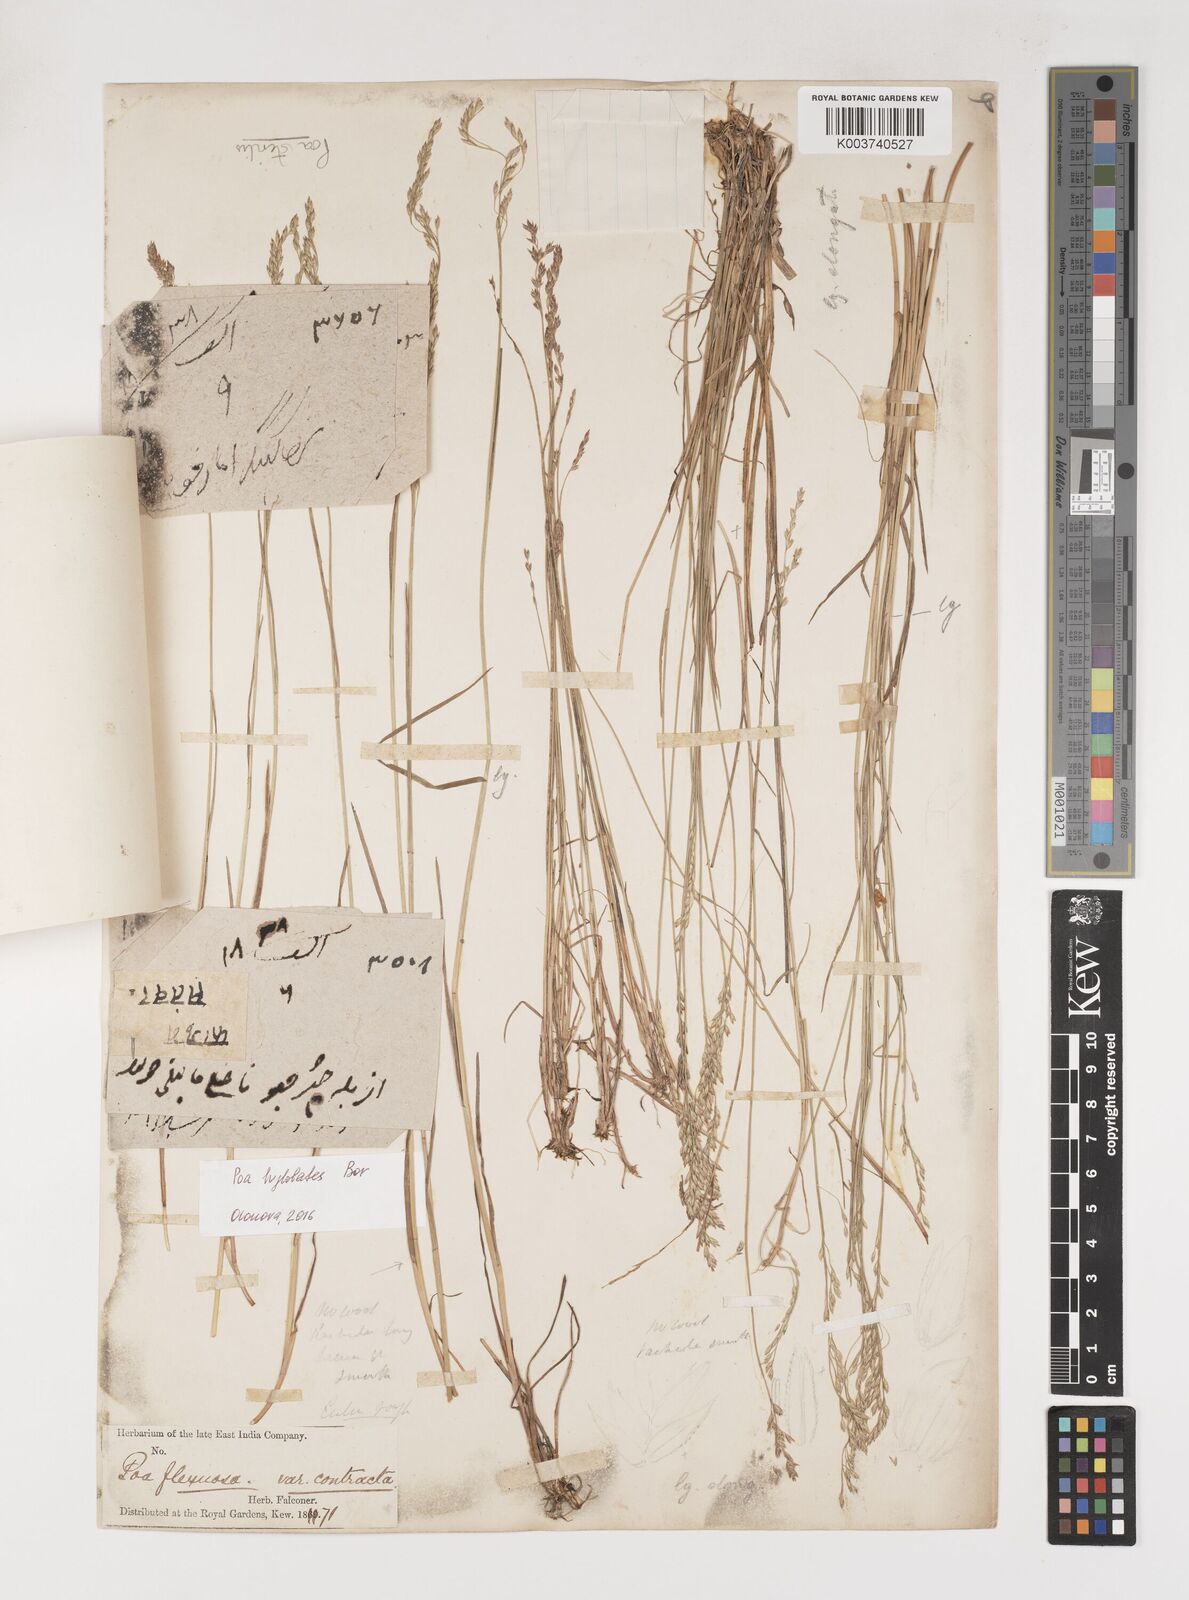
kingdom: Plantae
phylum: Tracheophyta
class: Liliopsida
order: Poales
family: Poaceae
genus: Poa
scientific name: Poa sterilis
